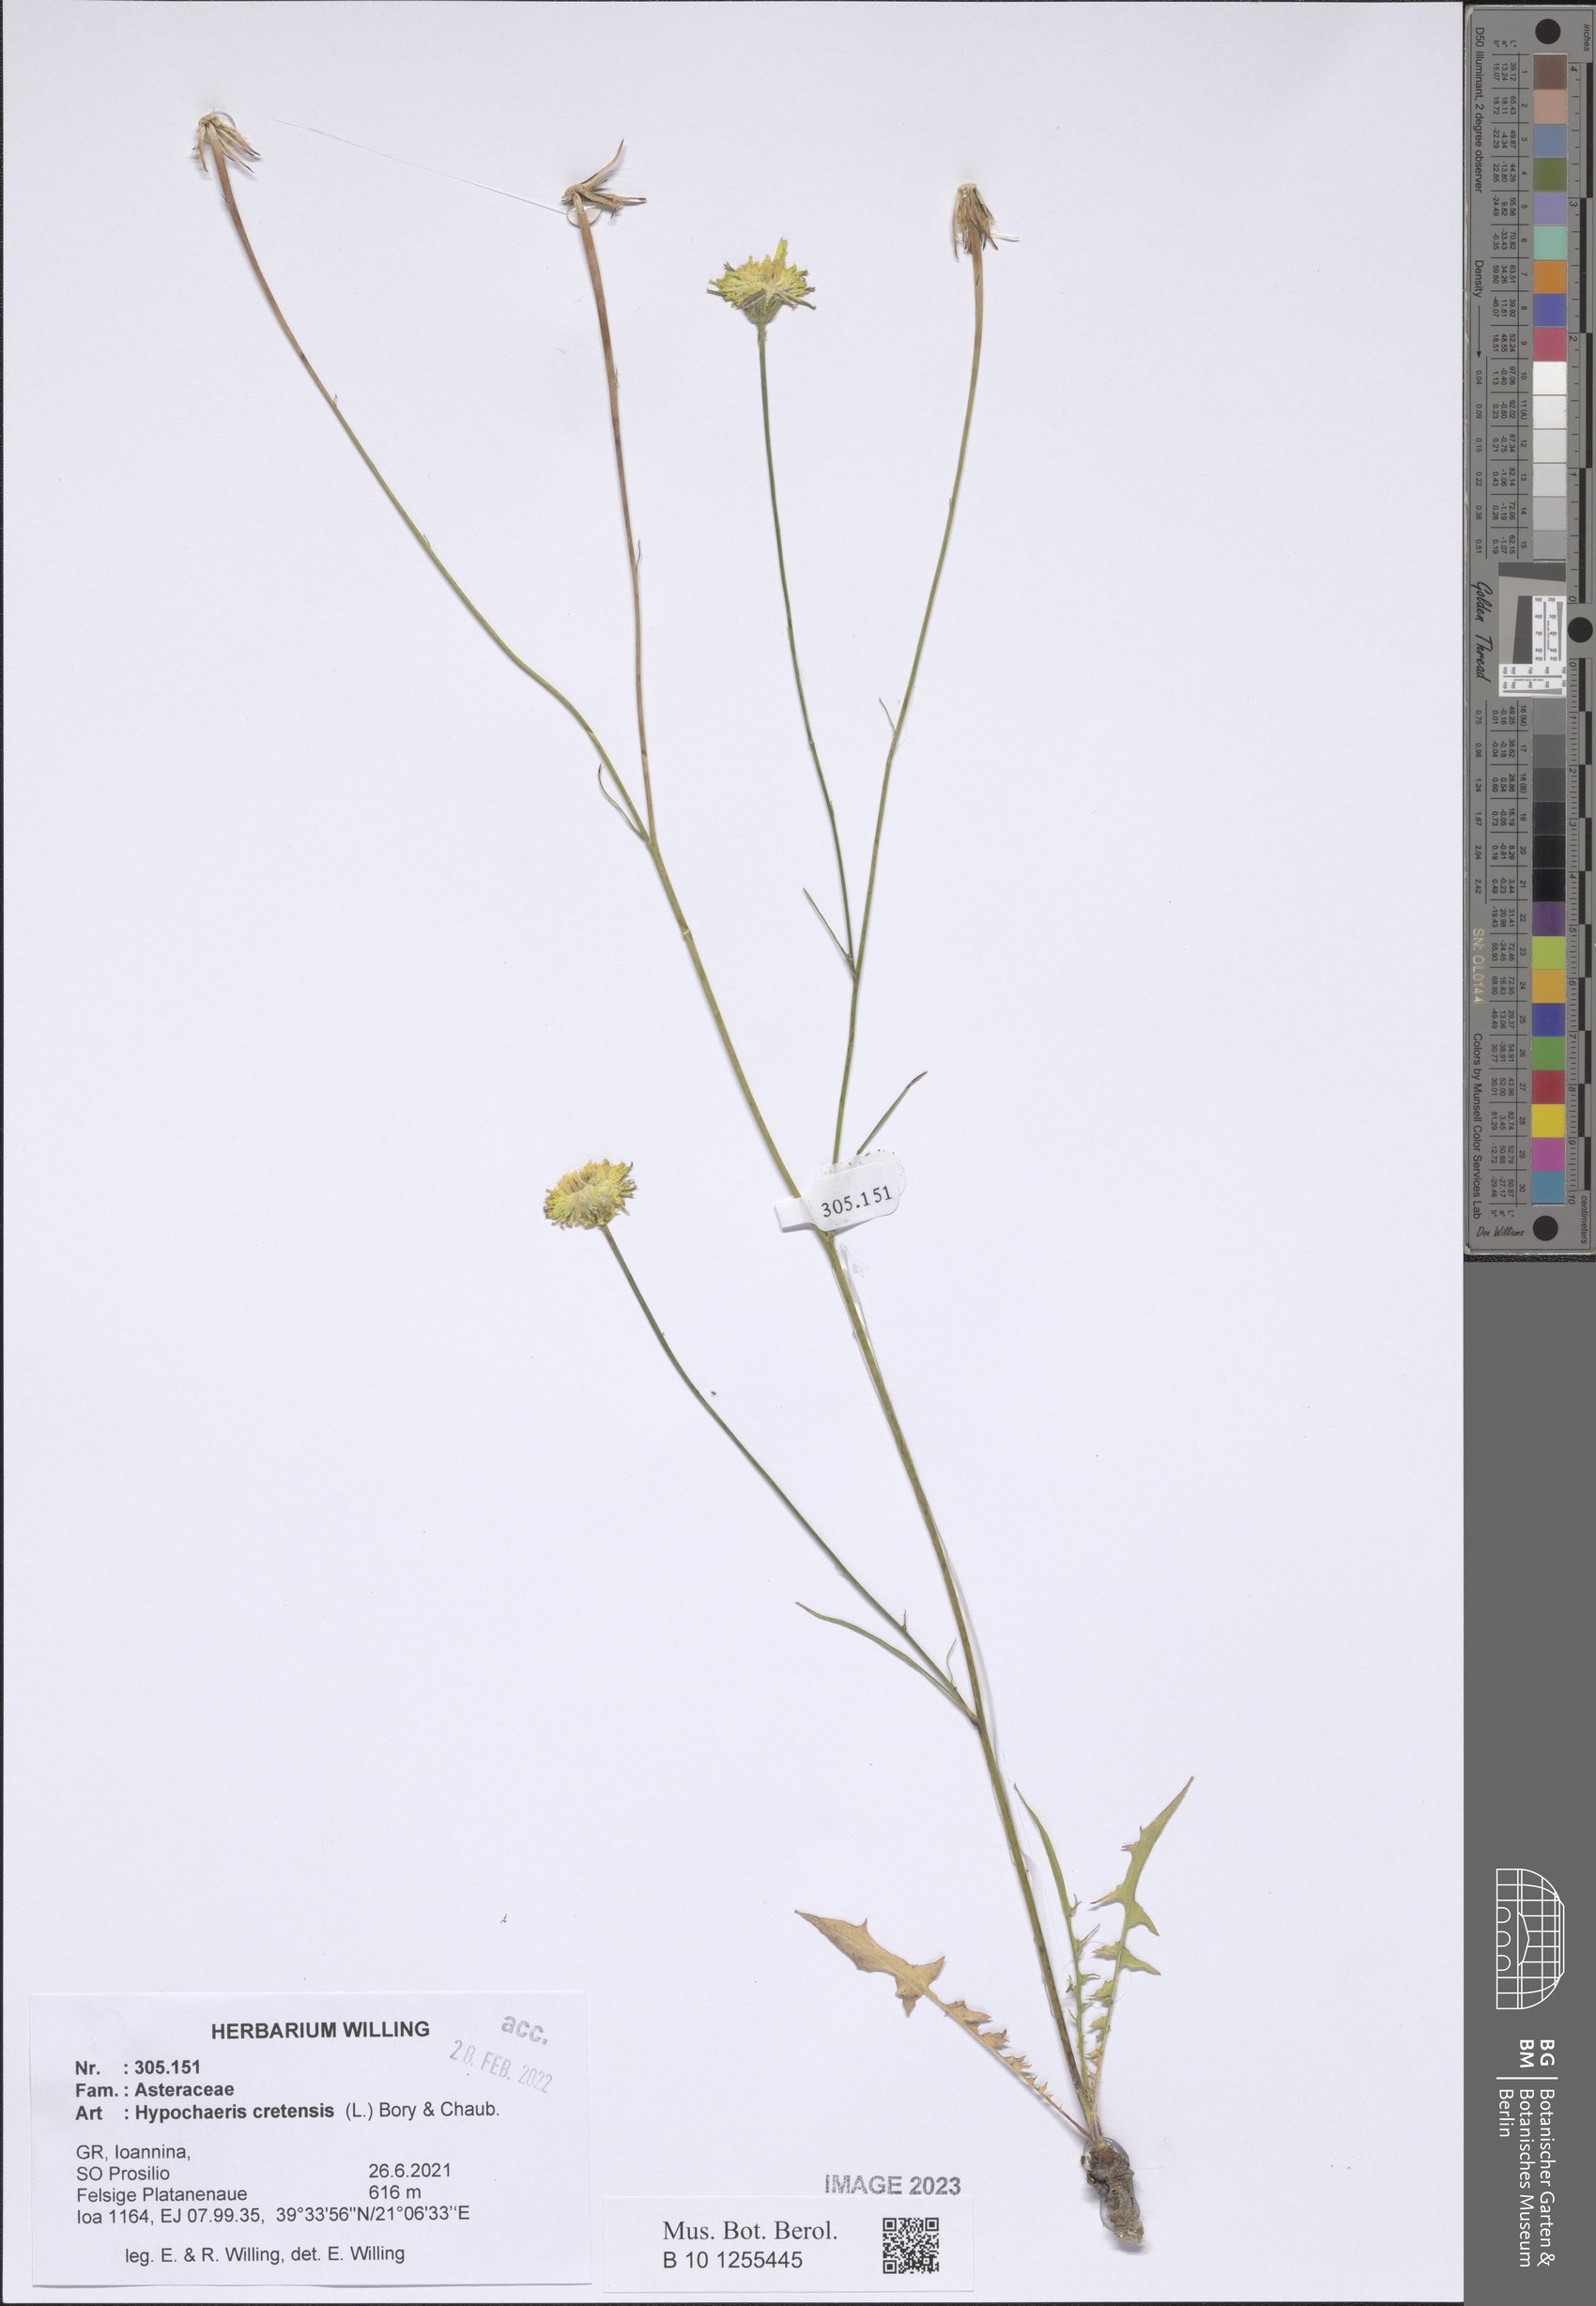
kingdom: Plantae
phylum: Tracheophyta
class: Magnoliopsida
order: Asterales
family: Asteraceae
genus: Hypochaeris
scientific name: Hypochaeris cretensis
